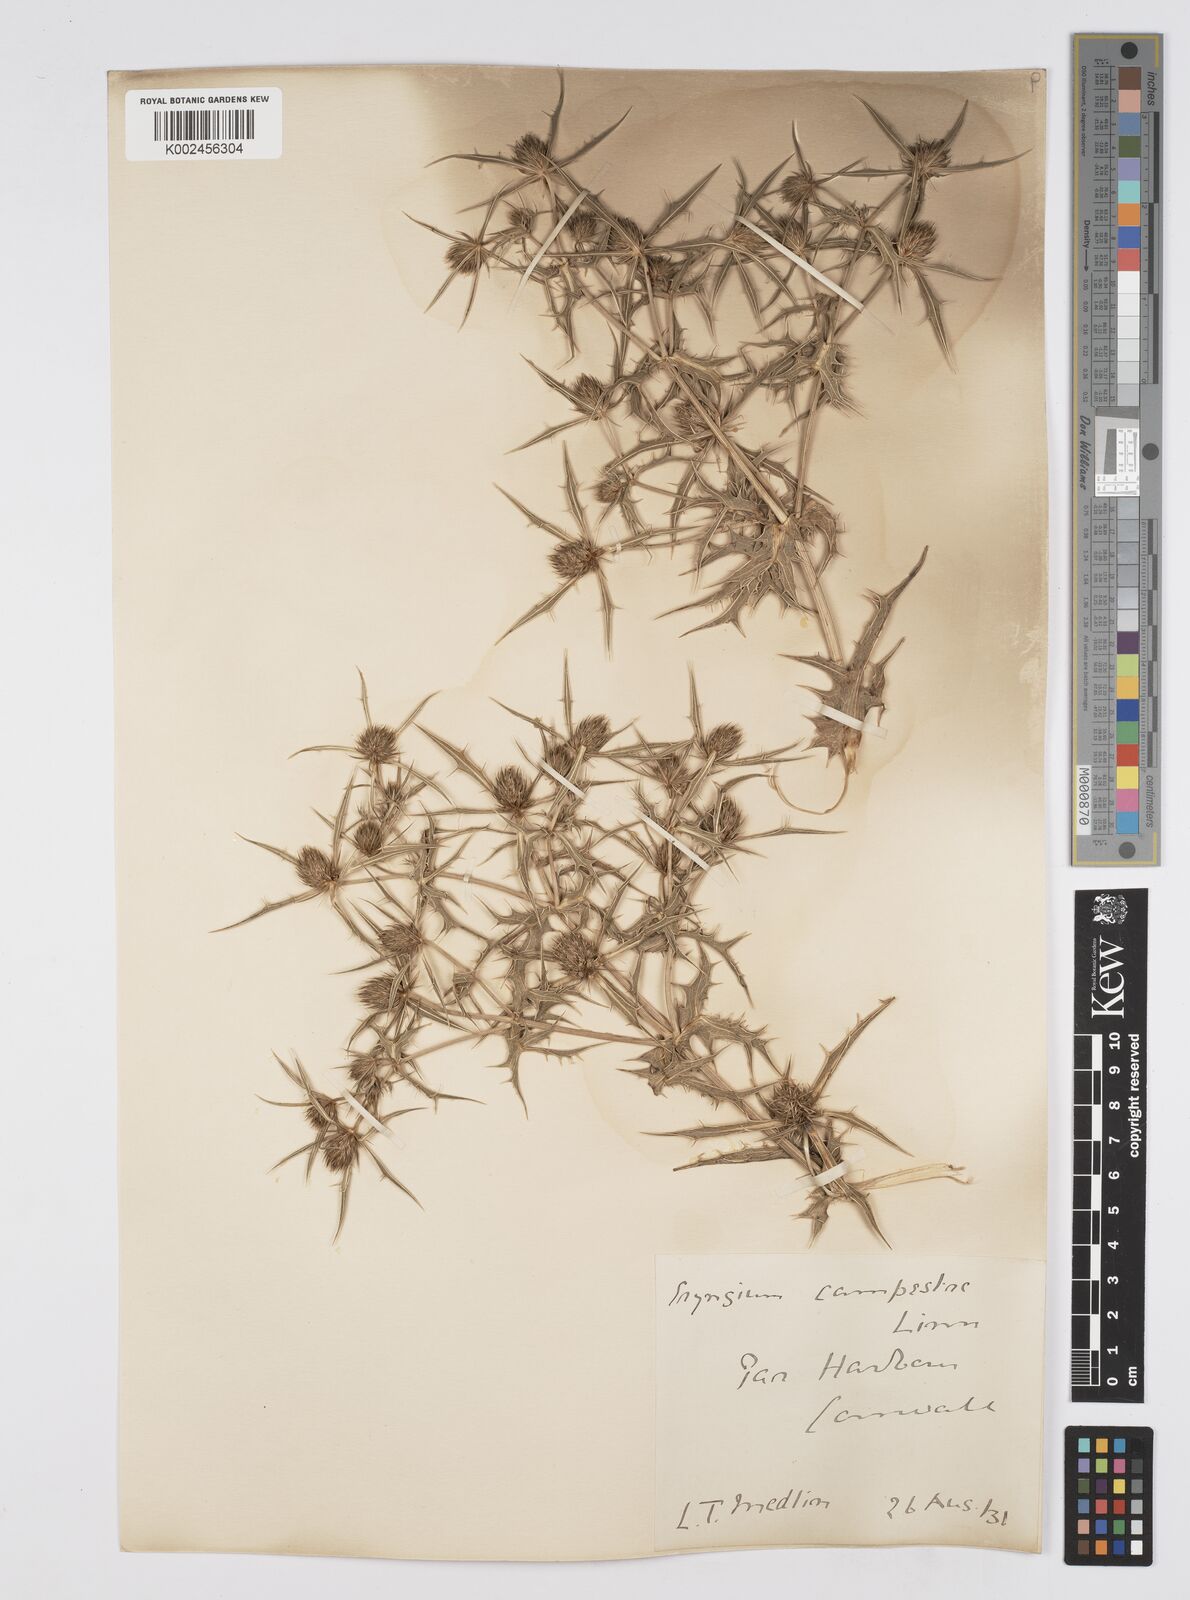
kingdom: Plantae
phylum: Tracheophyta
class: Magnoliopsida
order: Apiales
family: Apiaceae
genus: Eryngium
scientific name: Eryngium campestre
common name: Field eryngo
